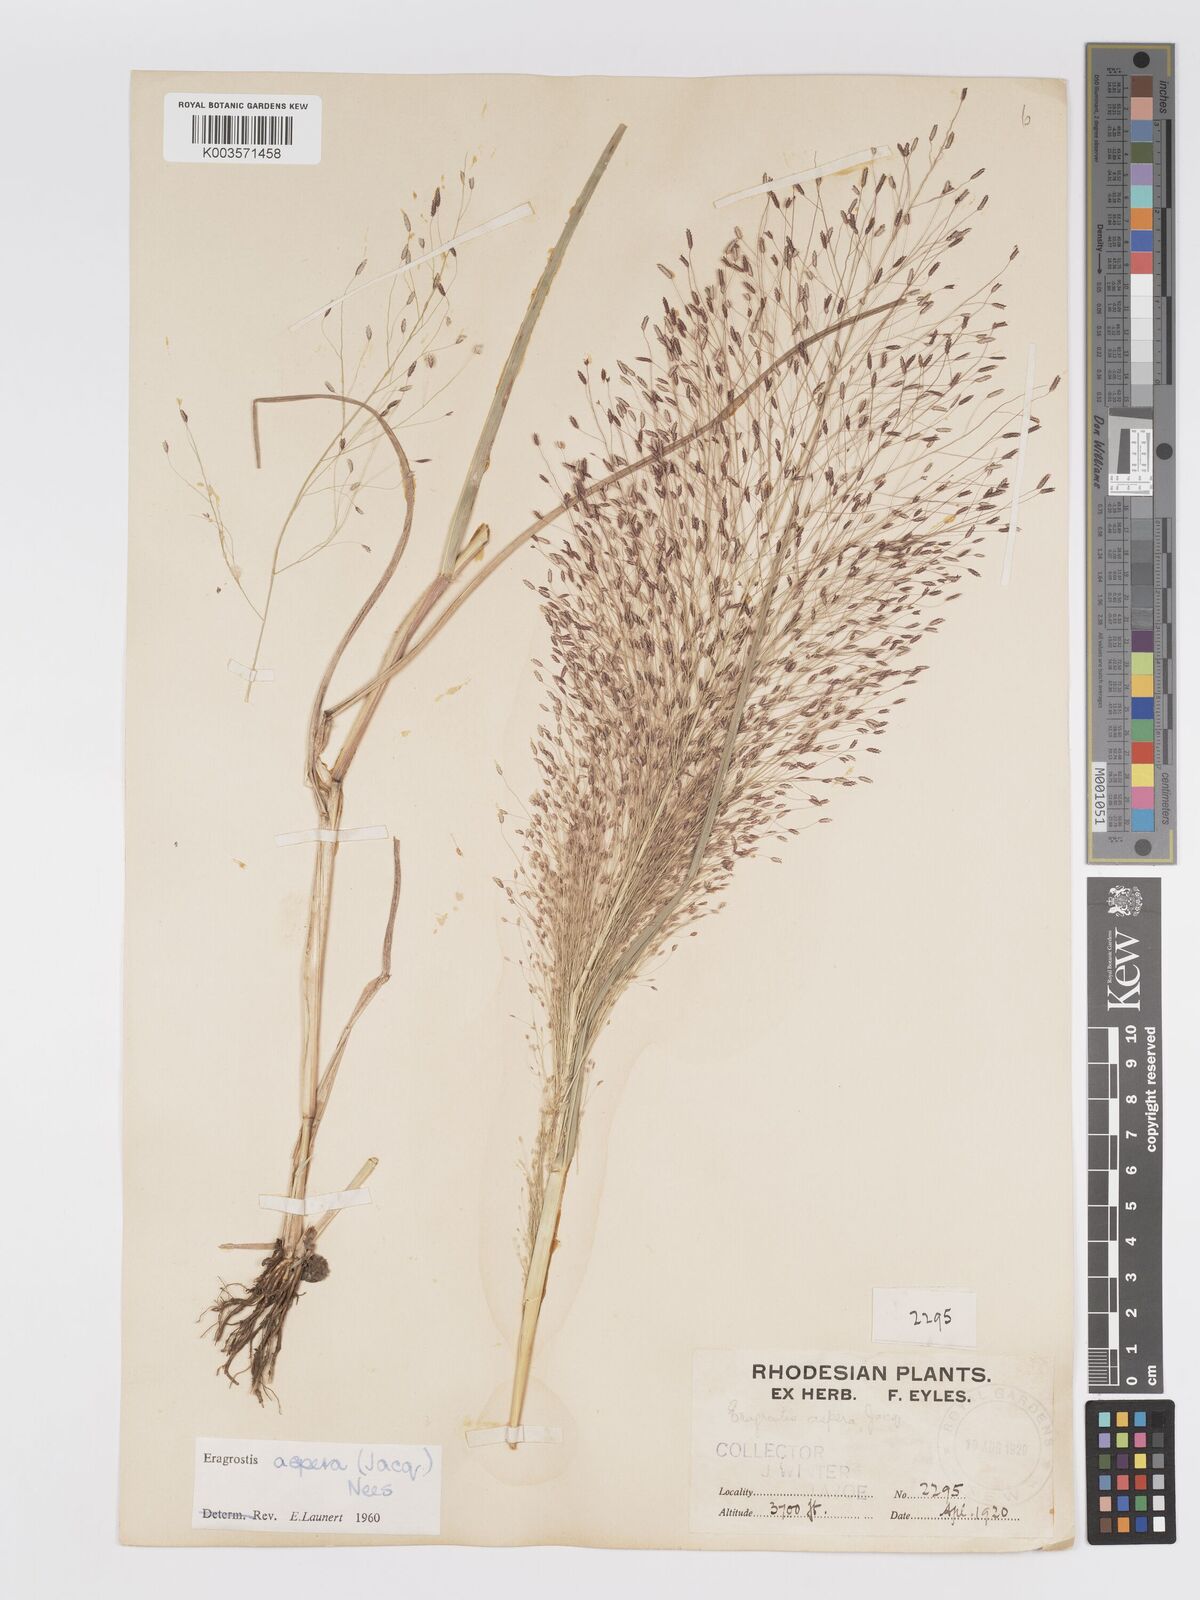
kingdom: Plantae
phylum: Tracheophyta
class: Liliopsida
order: Poales
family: Poaceae
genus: Eragrostis
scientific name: Eragrostis aspera
